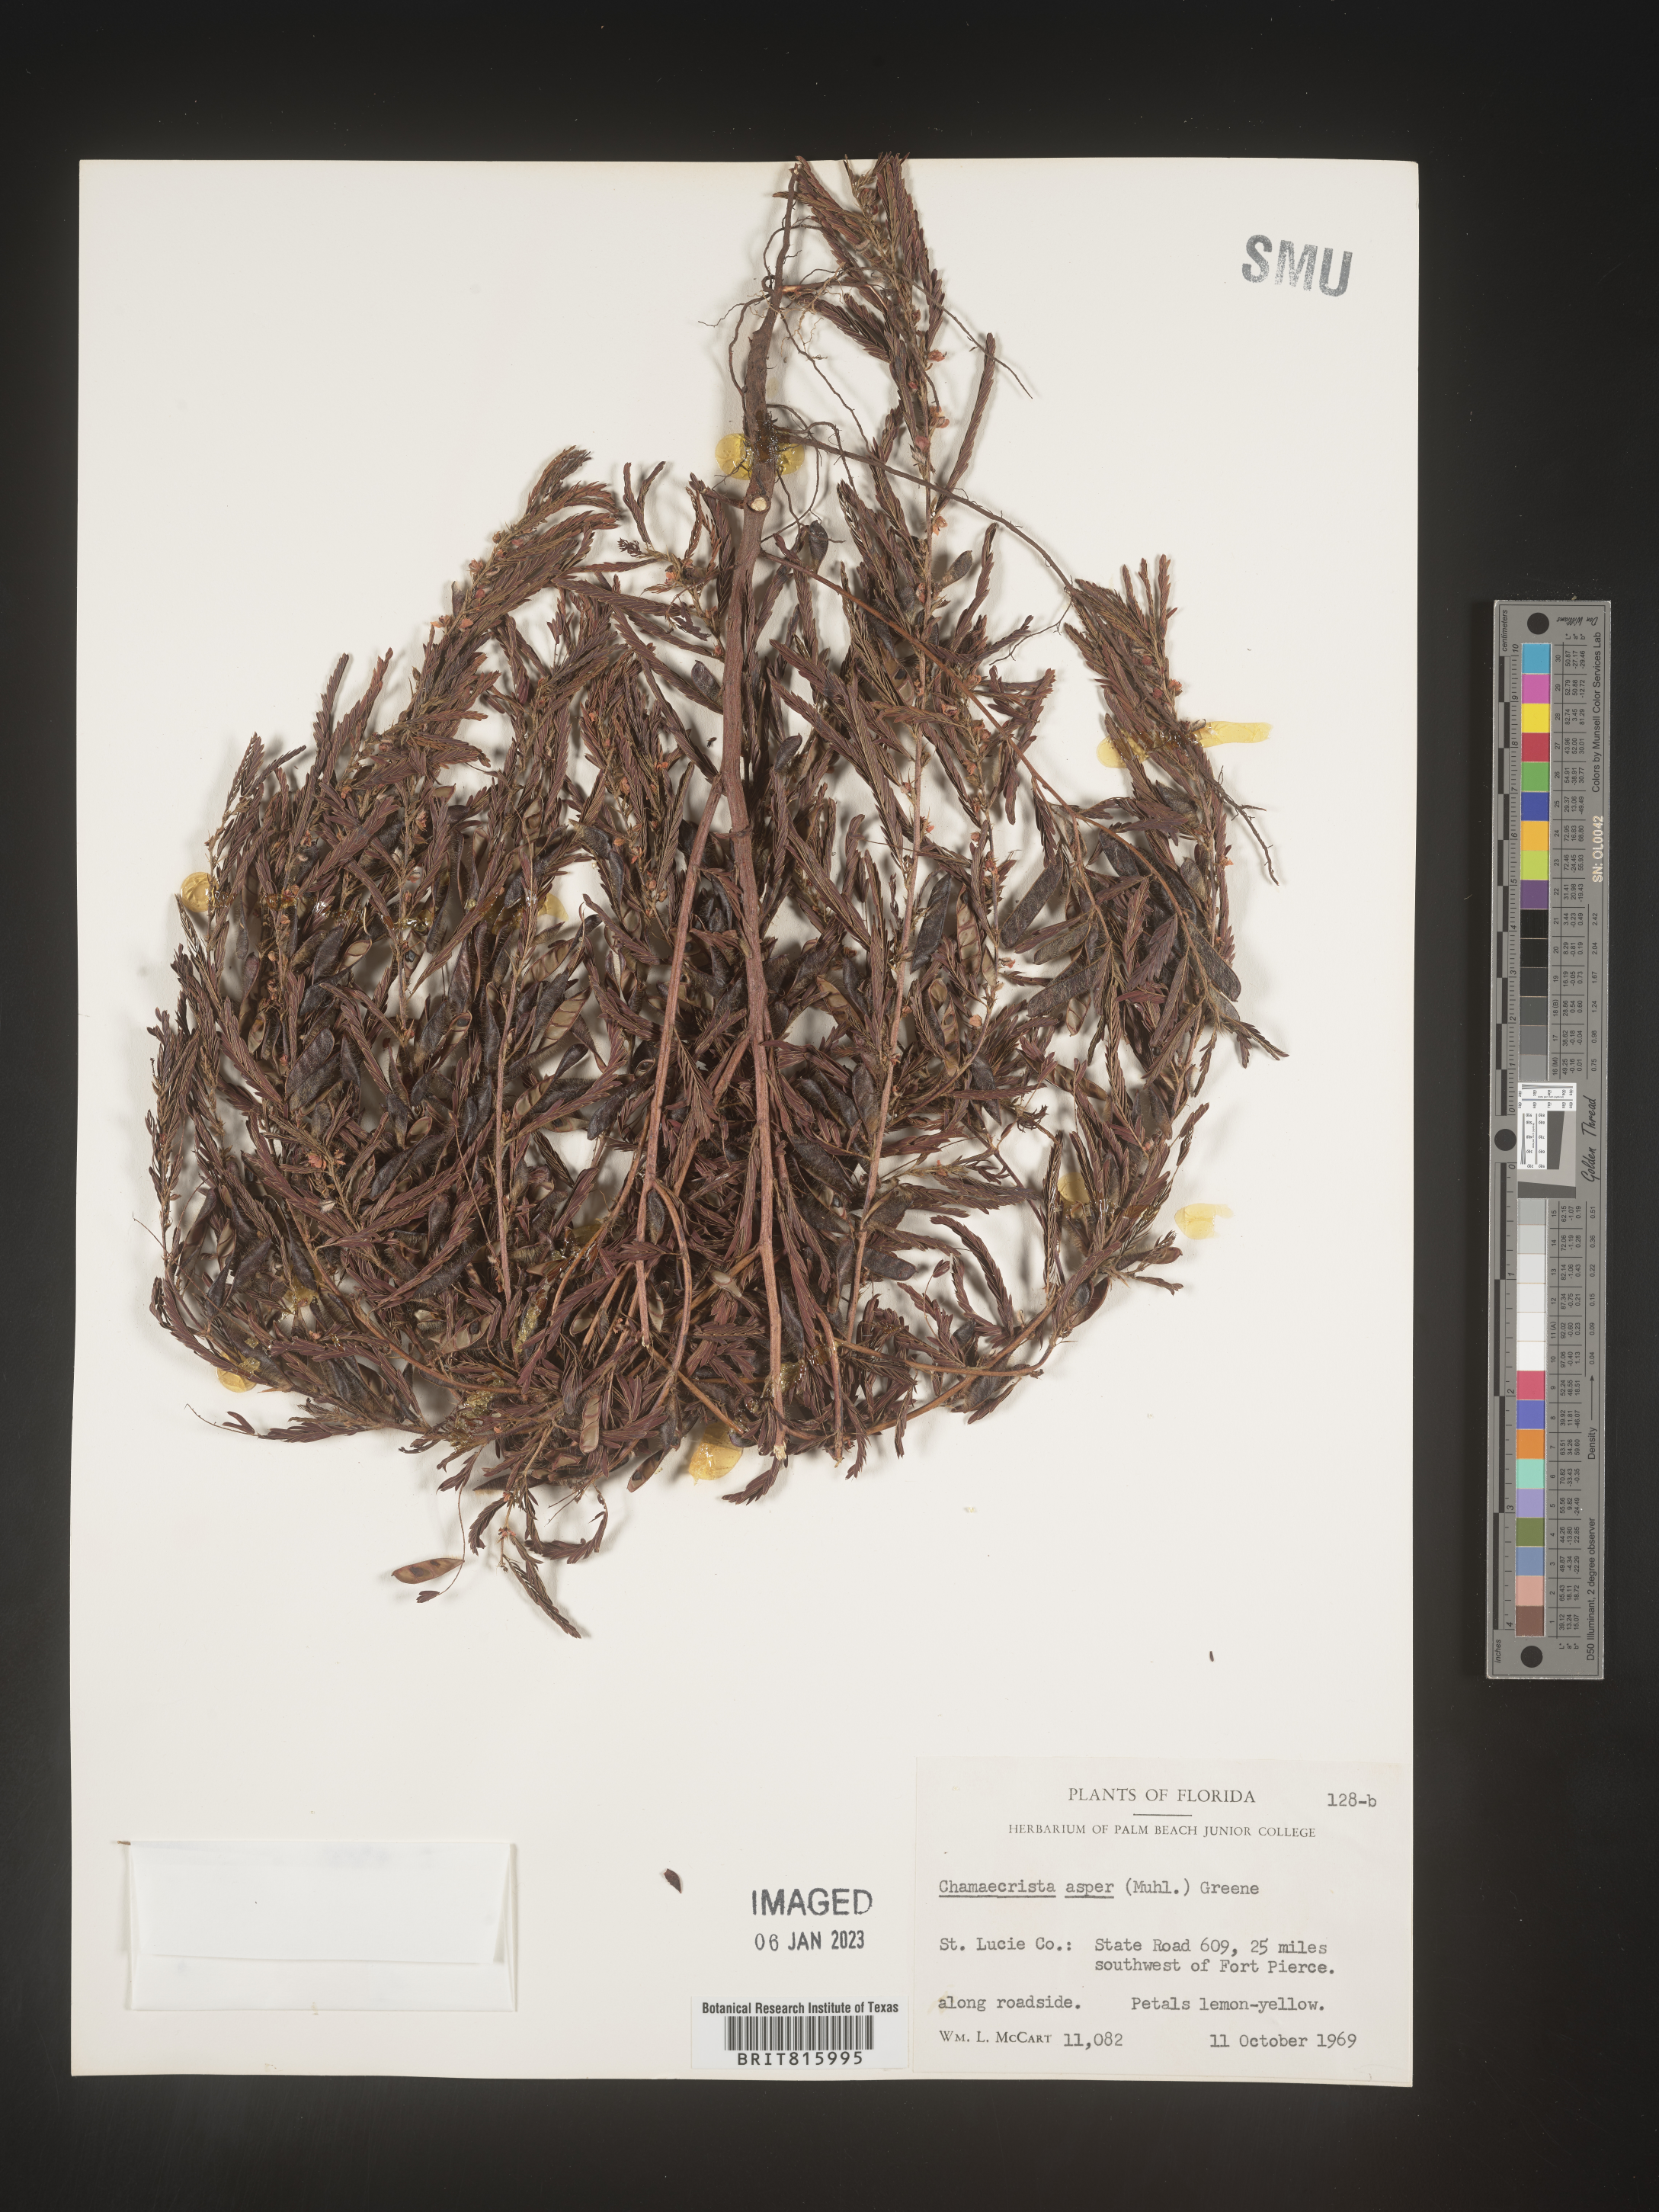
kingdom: Plantae
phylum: Tracheophyta
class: Magnoliopsida
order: Fabales
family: Fabaceae
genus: Chamaecrista
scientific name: Chamaecrista
